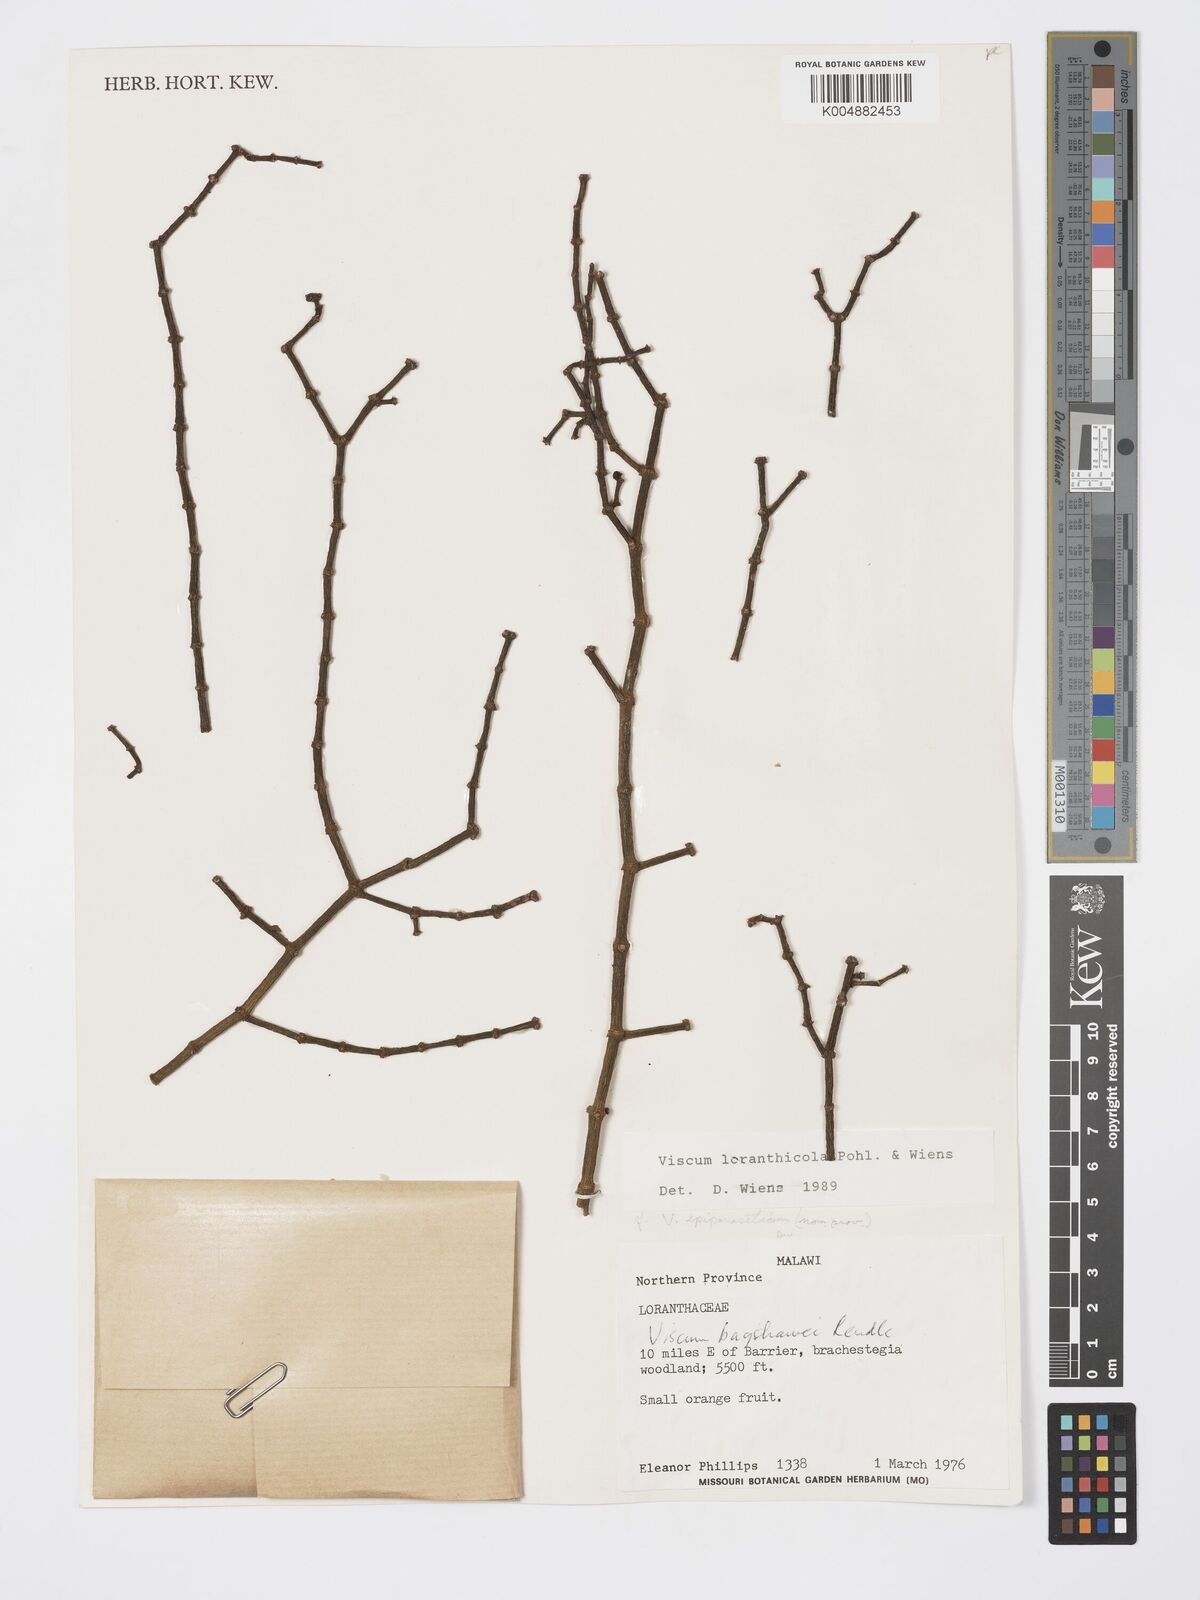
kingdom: Plantae
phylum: Tracheophyta
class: Magnoliopsida
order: Santalales
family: Viscaceae
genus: Viscum
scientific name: Viscum loranthicola
